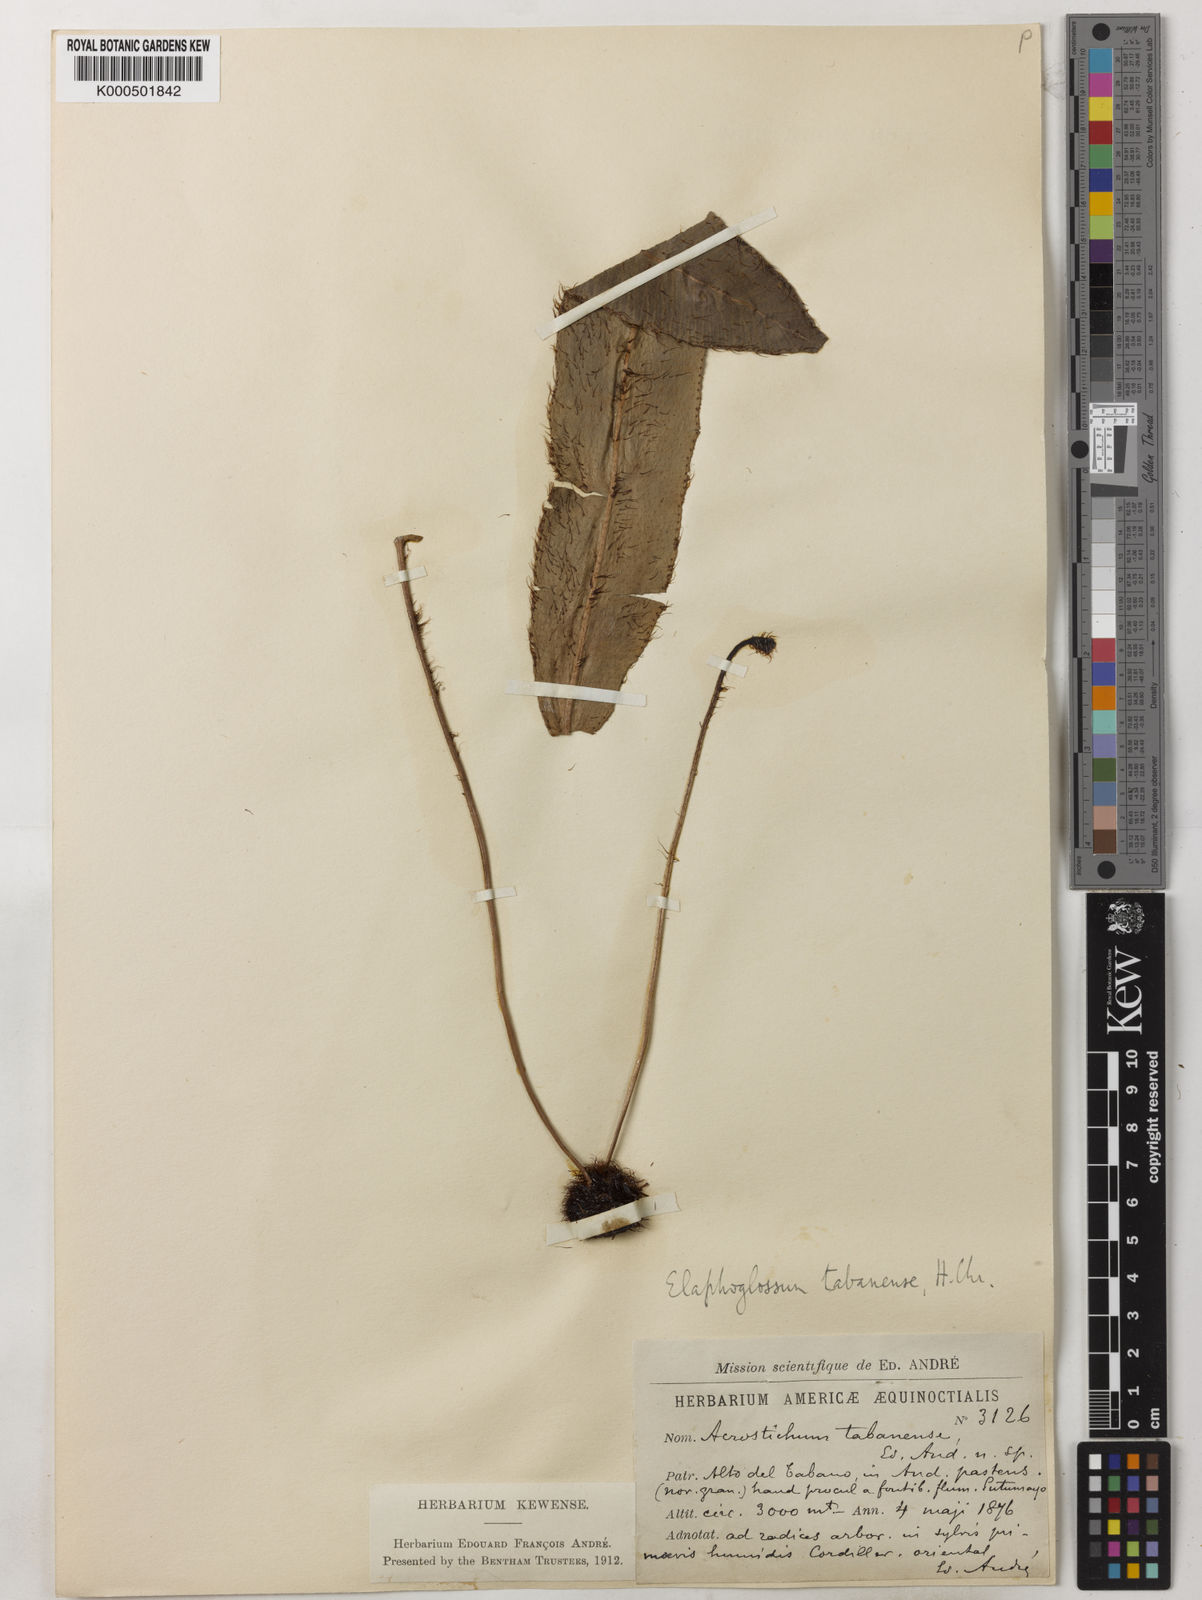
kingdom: Plantae
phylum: Tracheophyta
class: Polypodiopsida
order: Polypodiales
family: Dryopteridaceae
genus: Elaphoglossum
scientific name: Elaphoglossum
